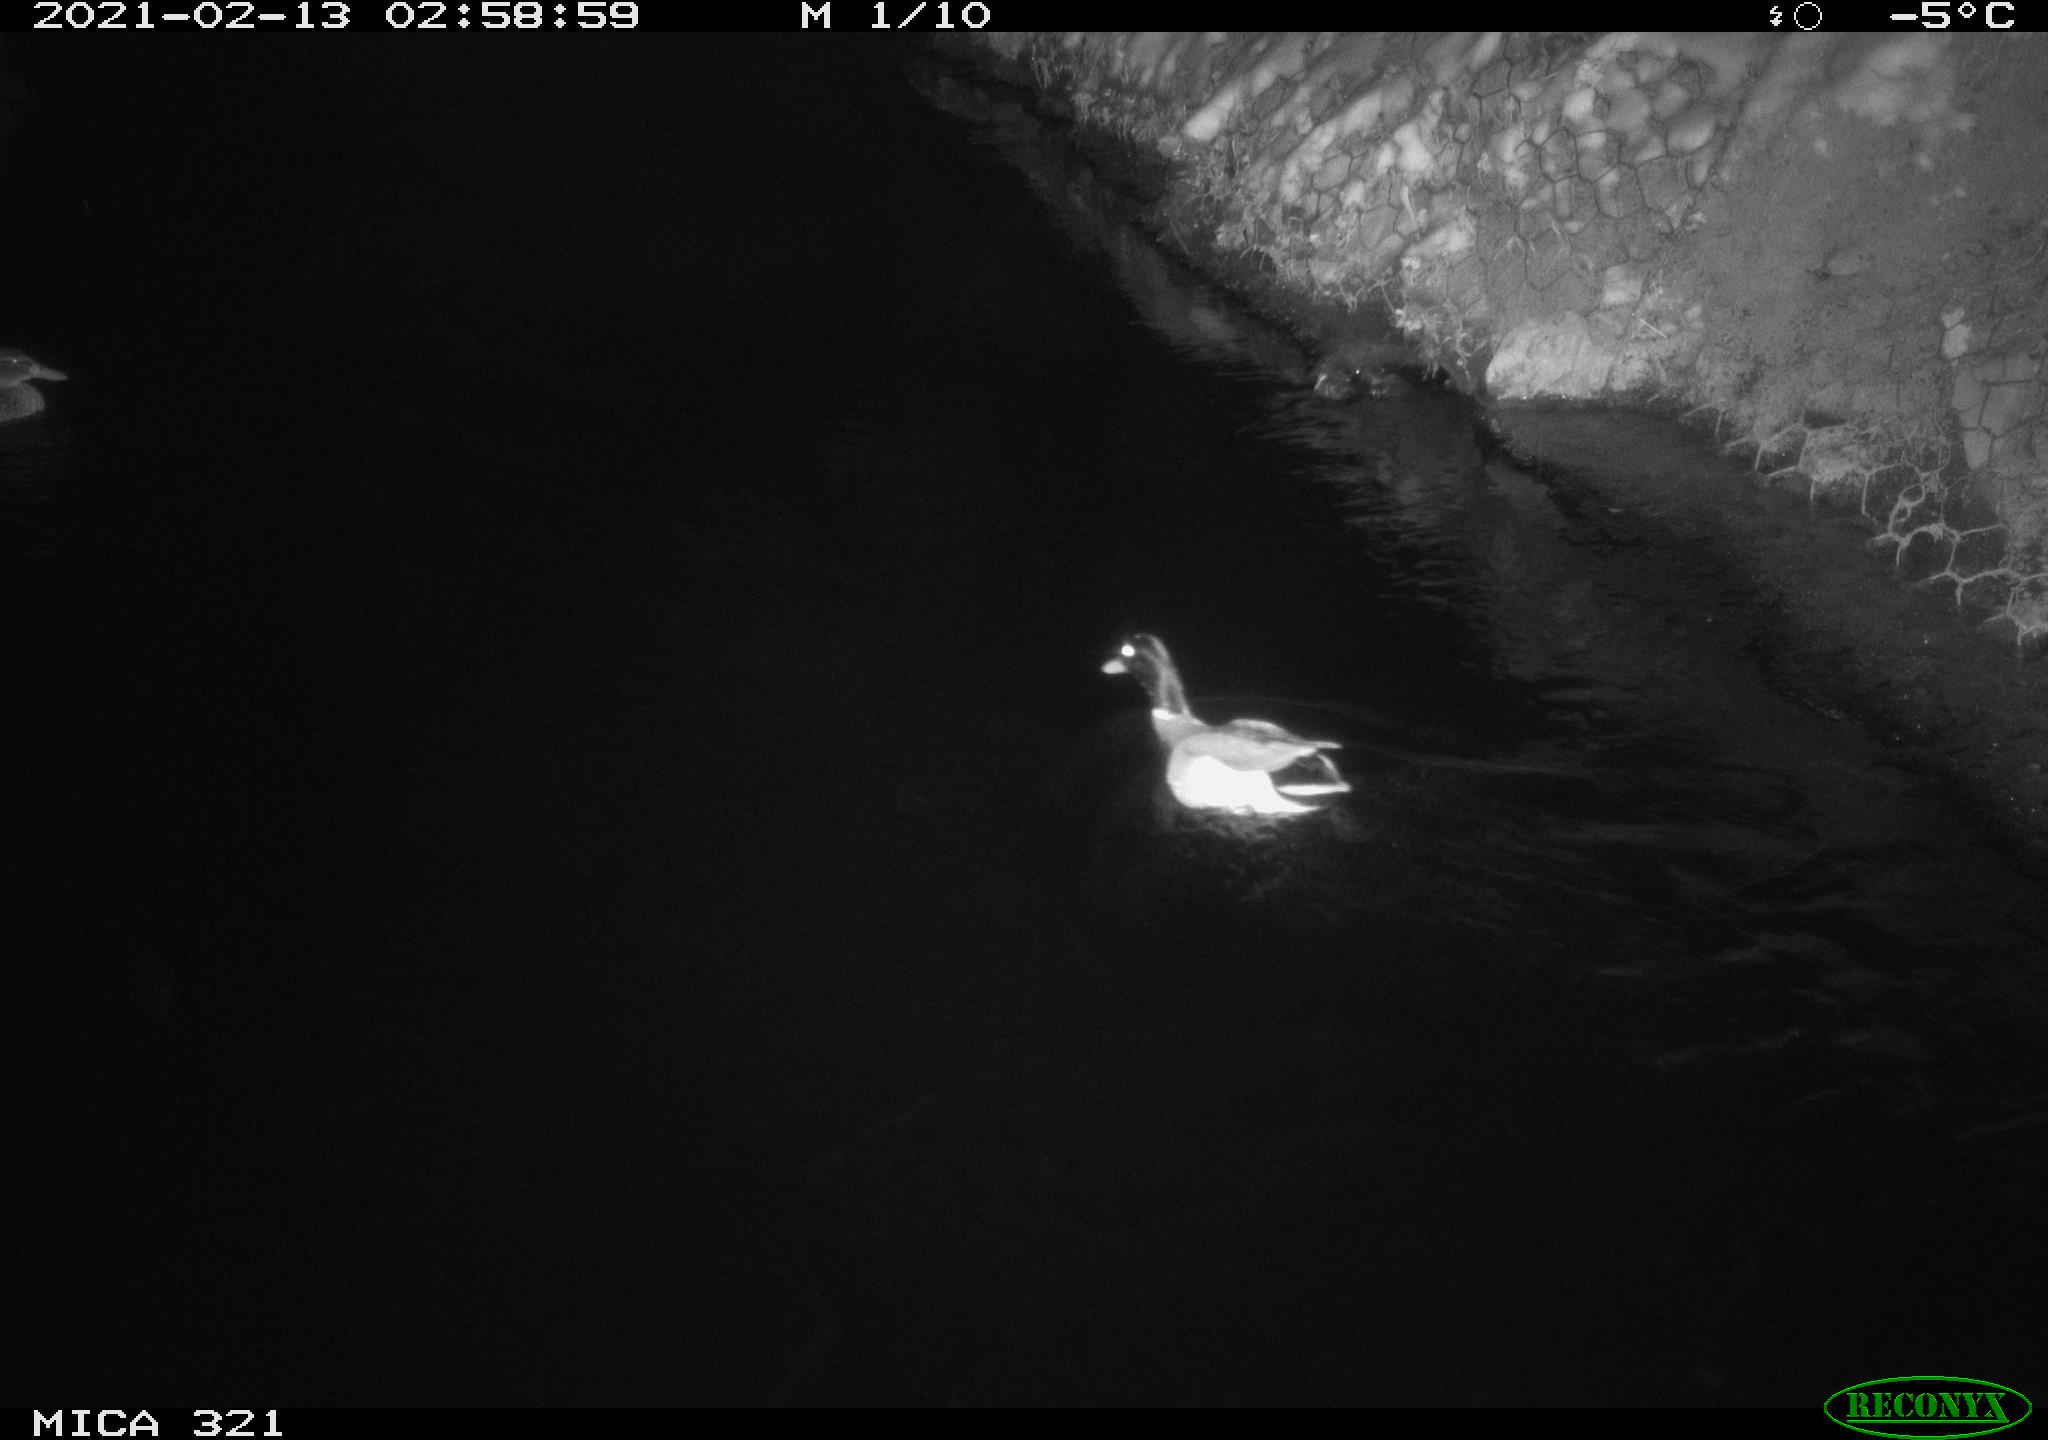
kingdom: Animalia
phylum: Chordata
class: Aves
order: Anseriformes
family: Anatidae
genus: Anas
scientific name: Anas platyrhynchos
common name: Mallard
